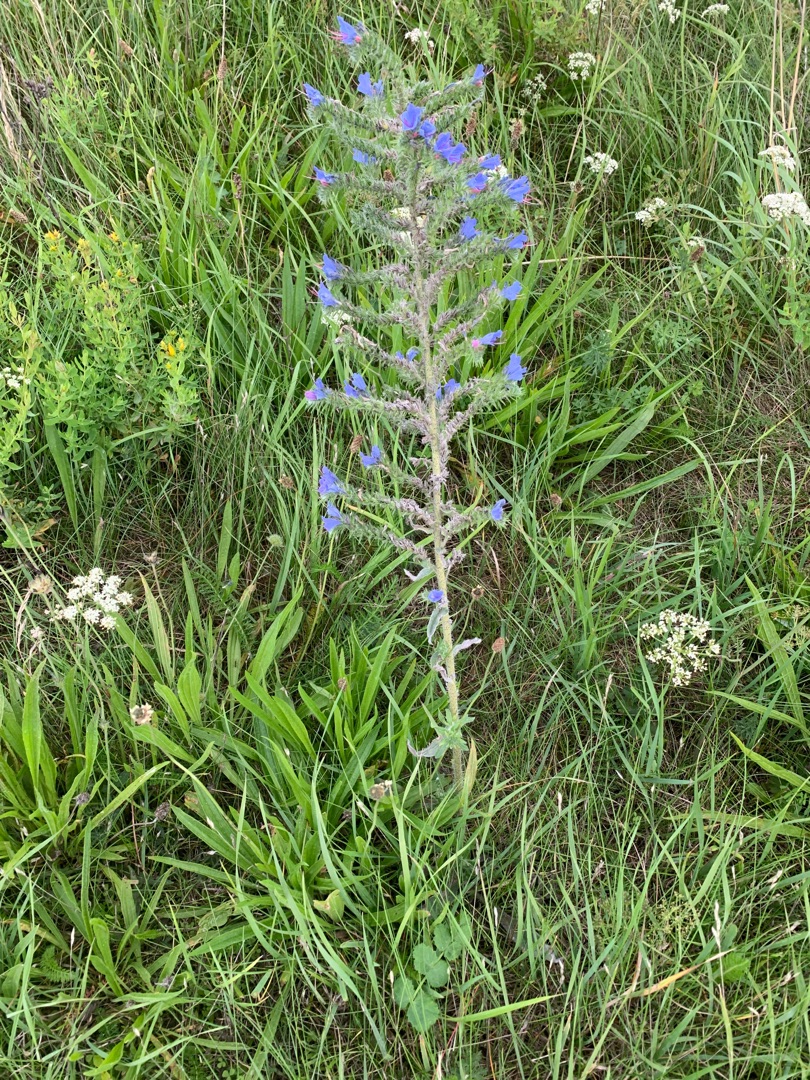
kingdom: Plantae
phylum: Tracheophyta
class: Magnoliopsida
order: Boraginales
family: Boraginaceae
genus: Echium
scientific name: Echium vulgare
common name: Slangehoved
